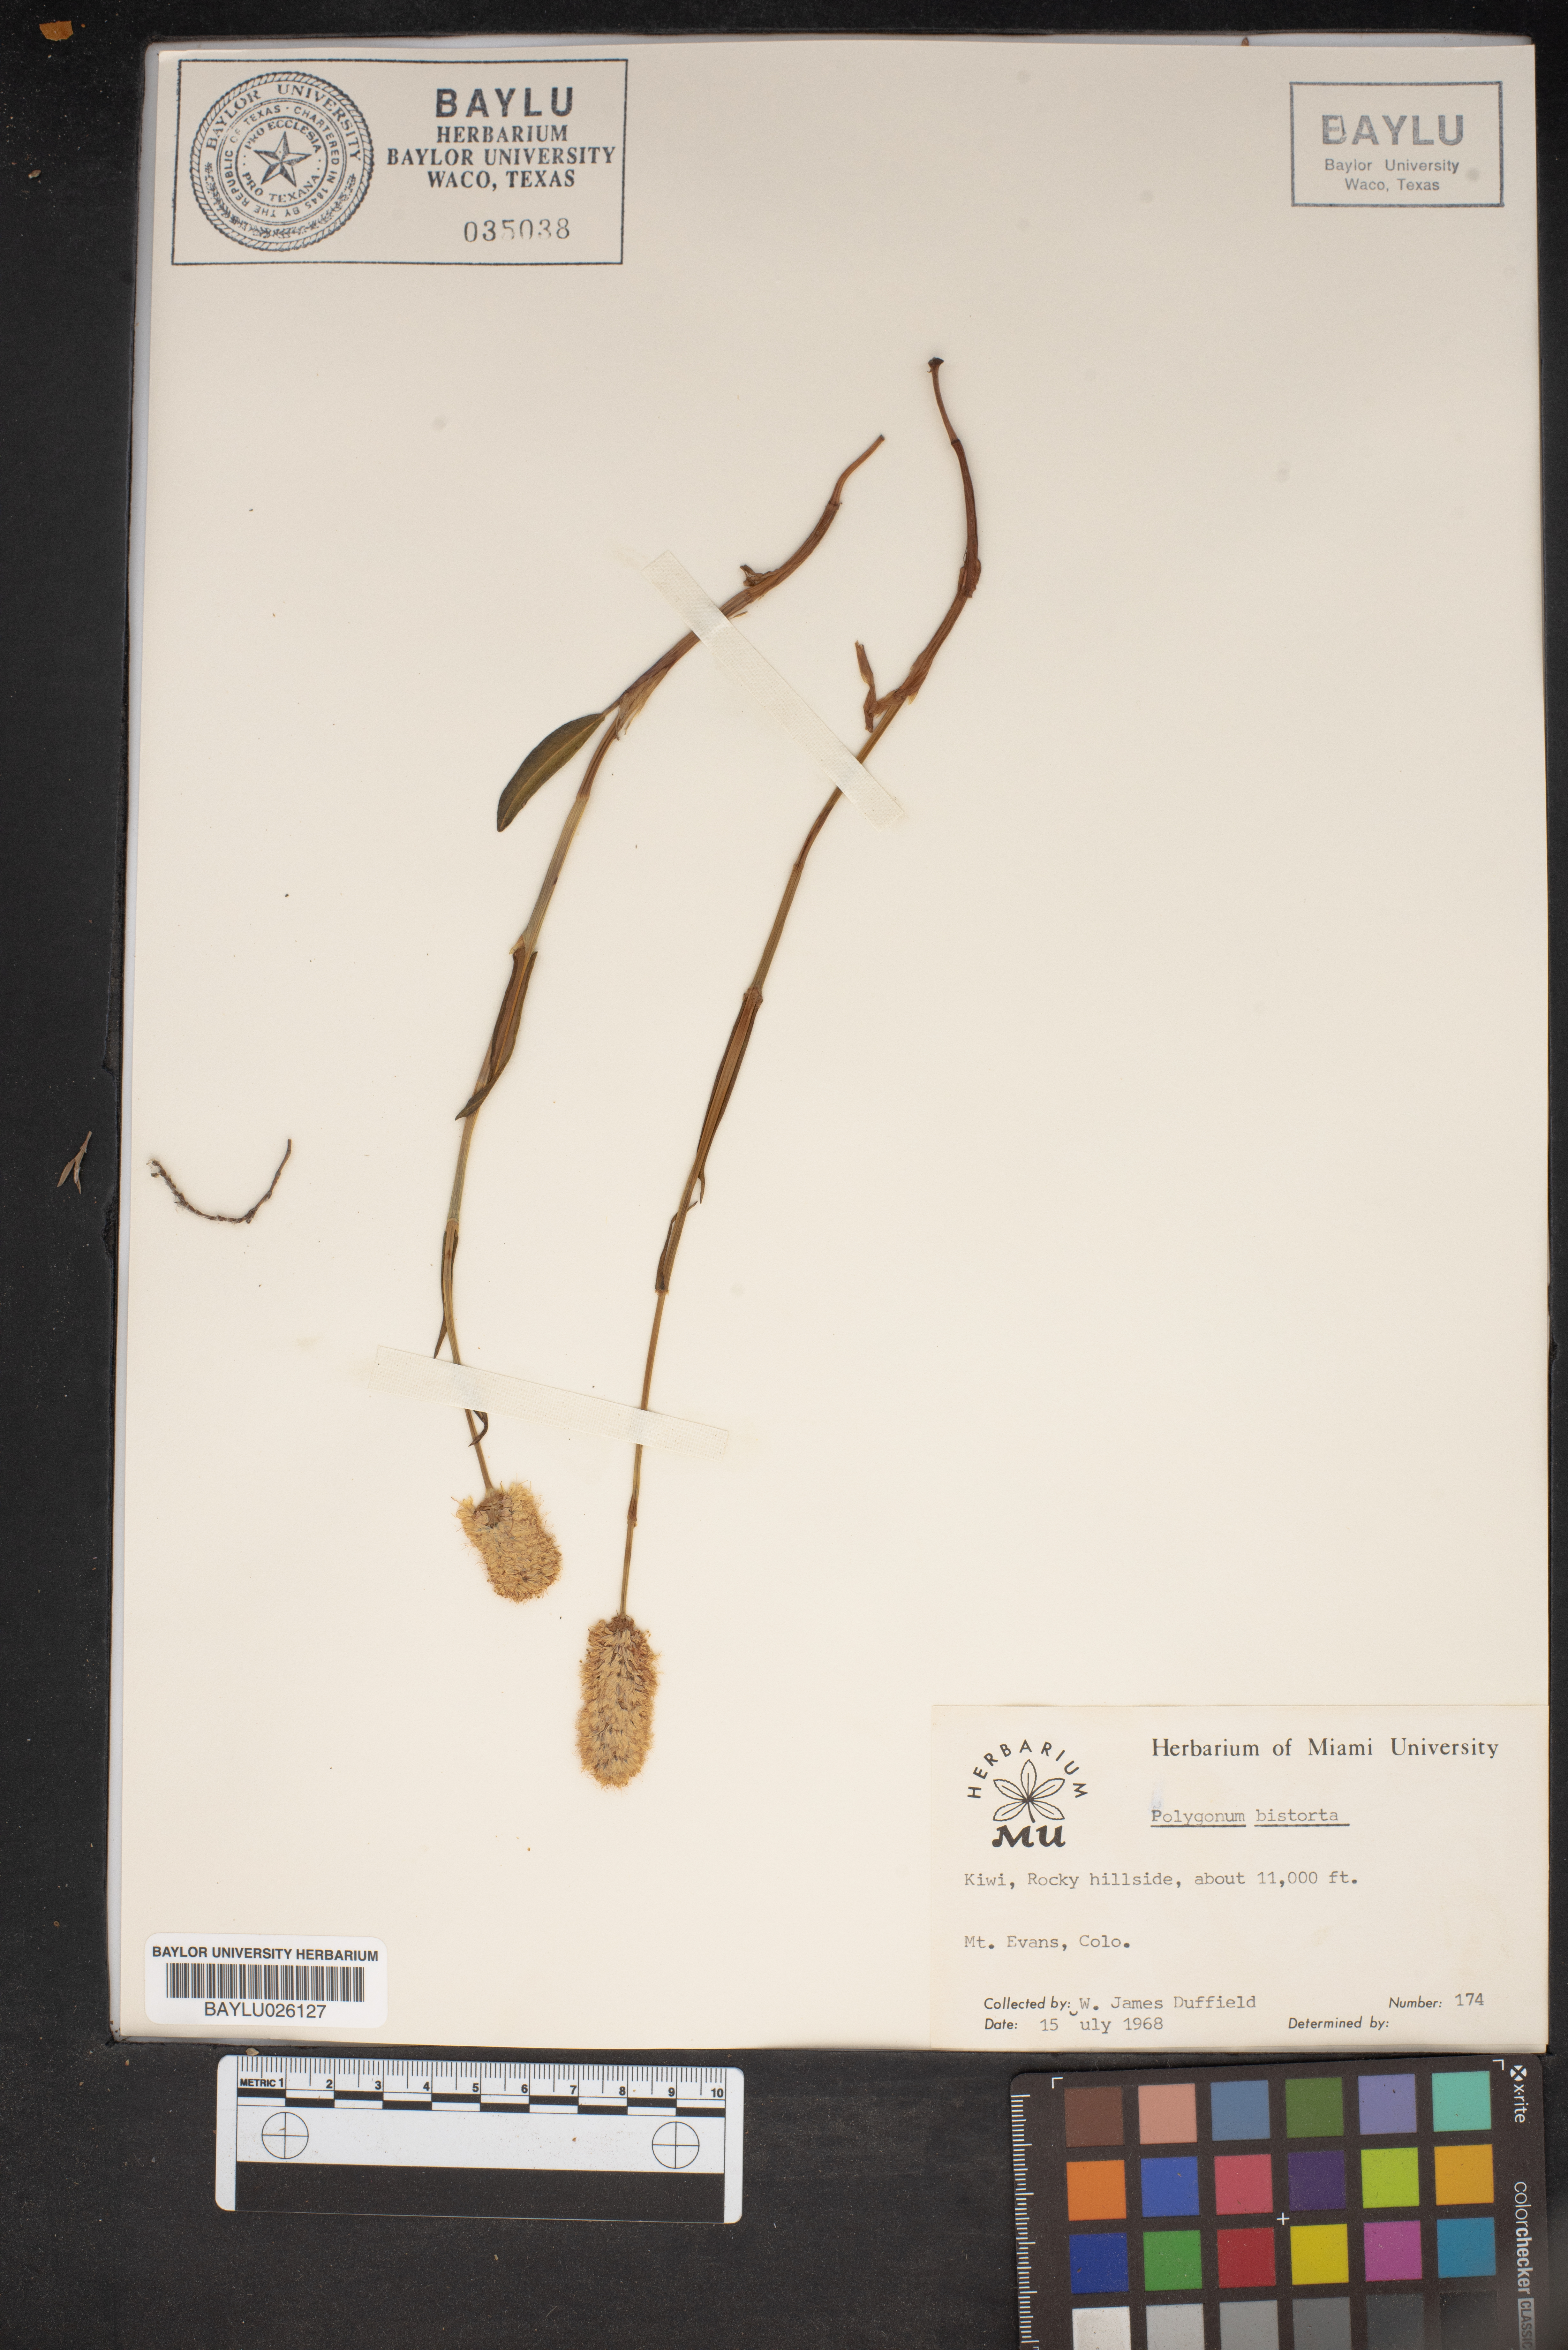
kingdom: Plantae
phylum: Tracheophyta
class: Magnoliopsida
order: Caryophyllales
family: Polygonaceae
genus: Bistorta
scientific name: Bistorta officinalis
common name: Common bistort
